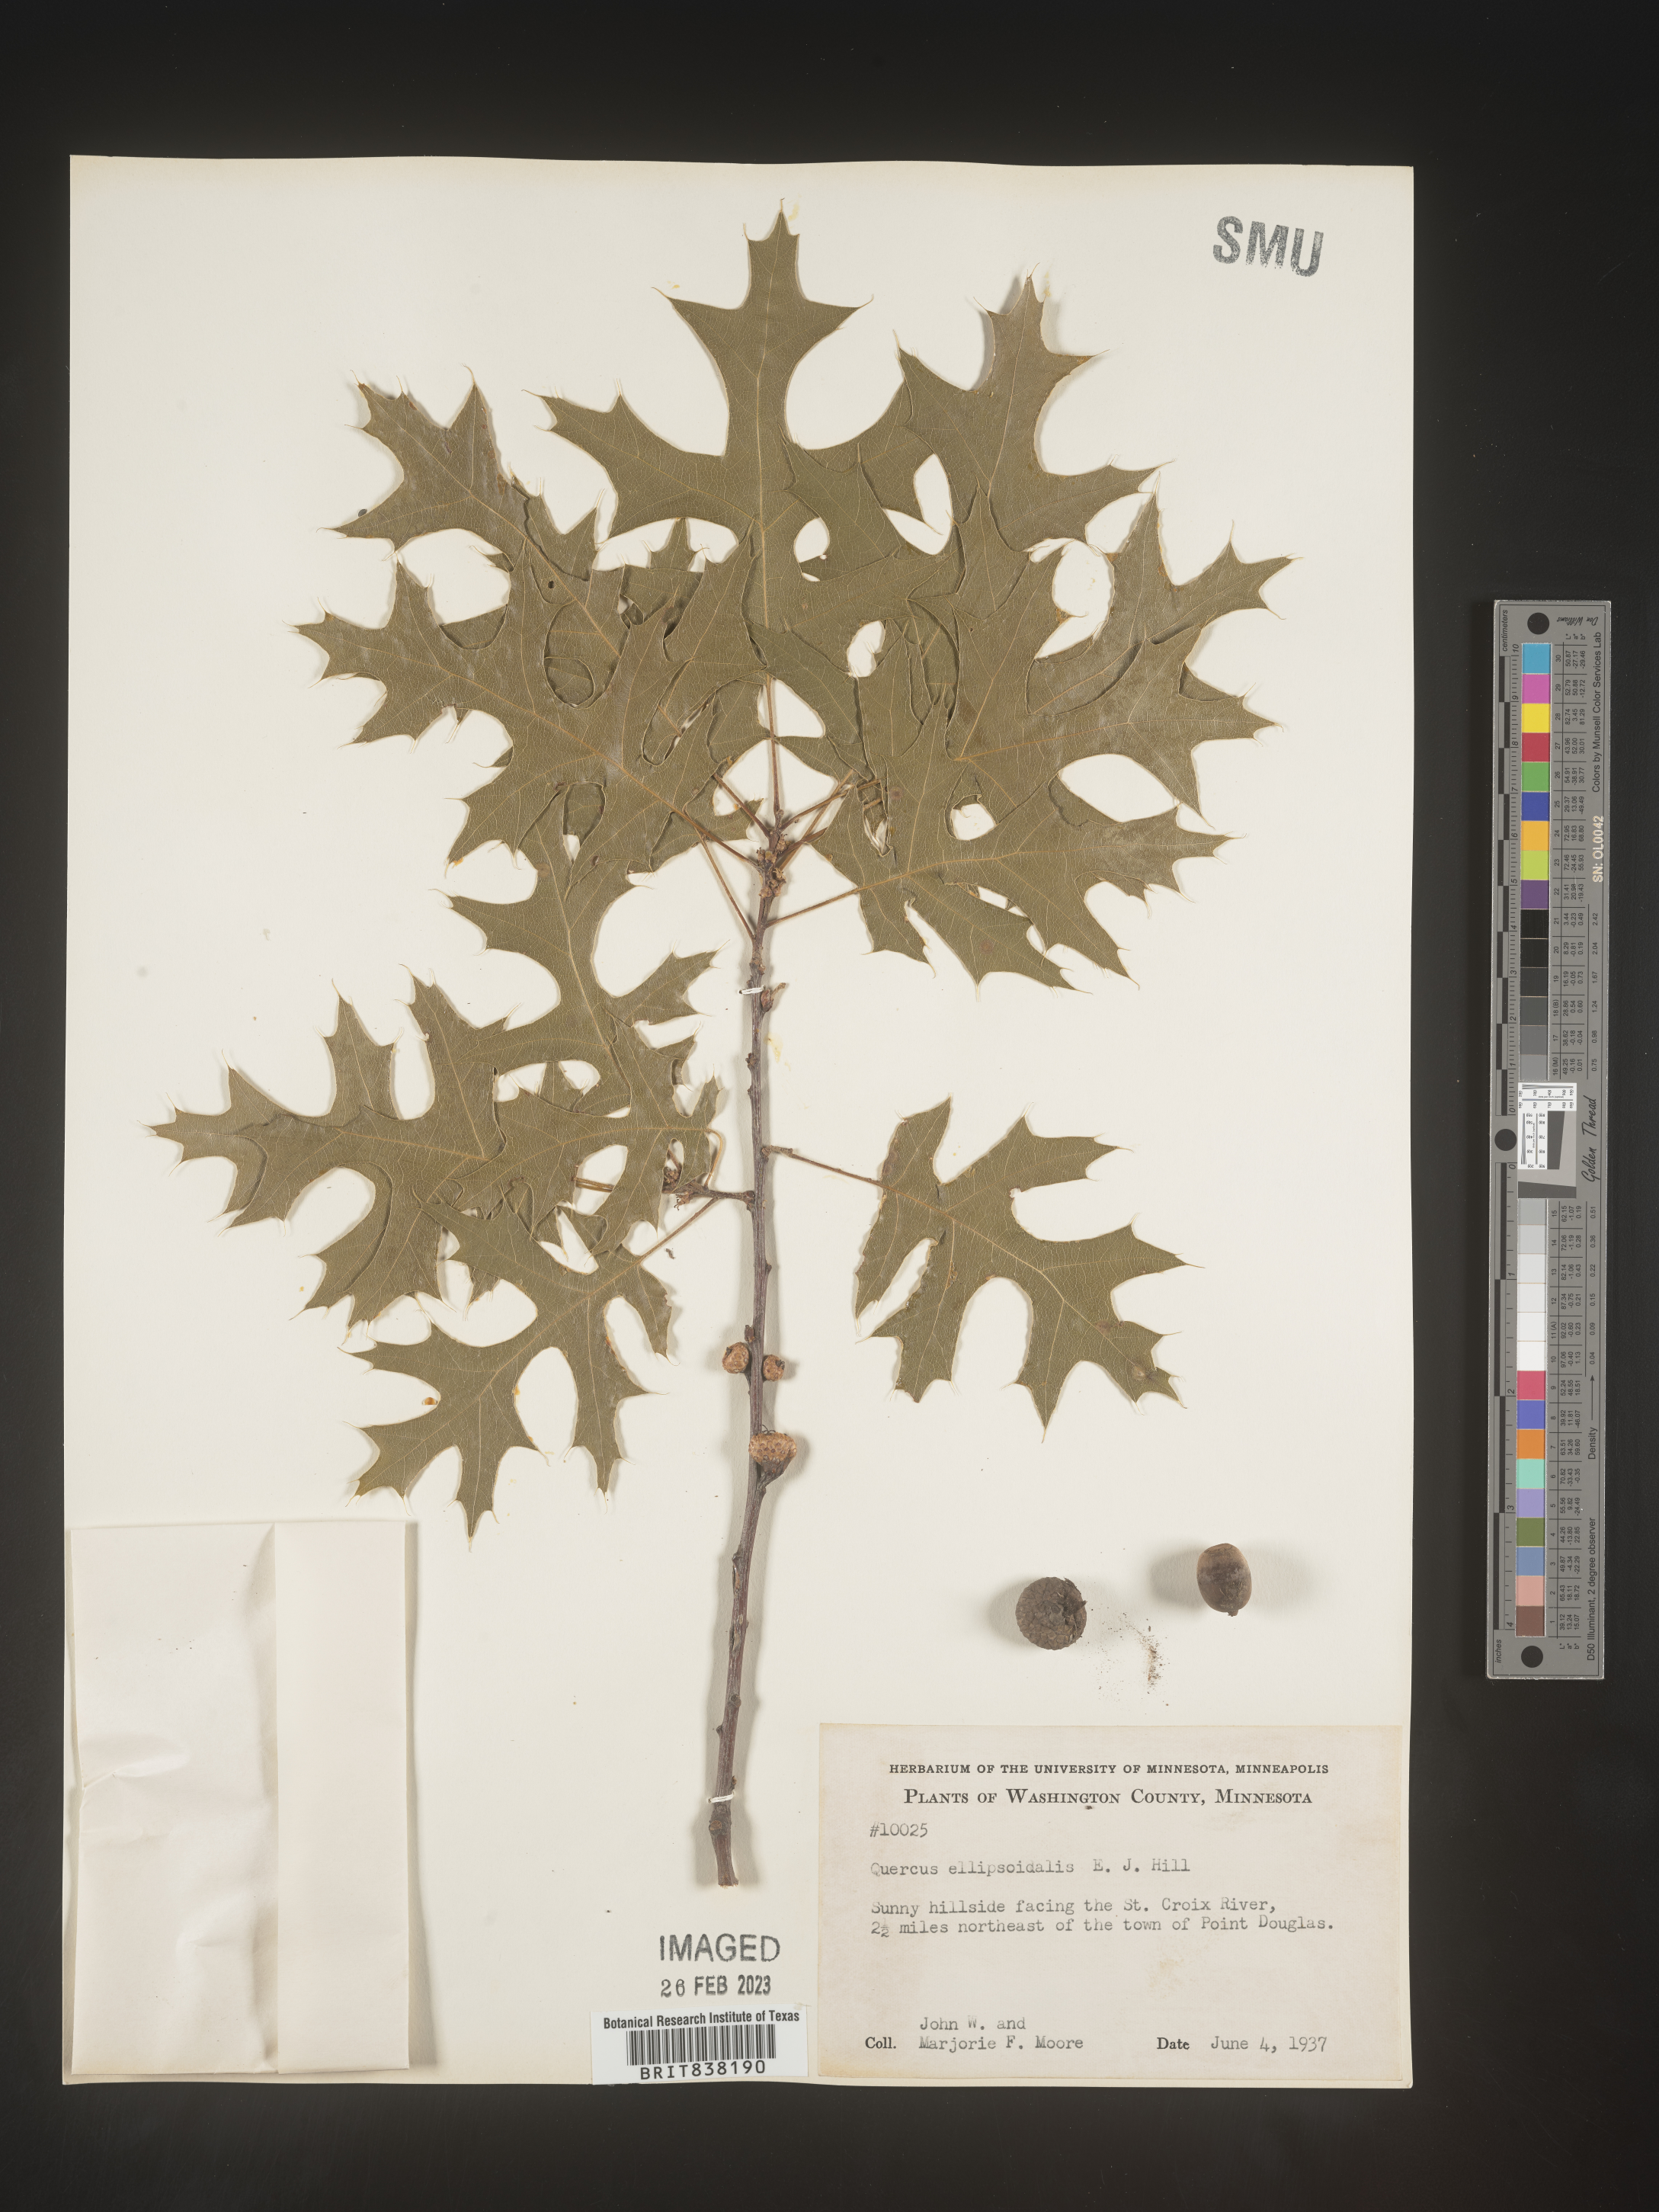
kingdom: Plantae
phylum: Tracheophyta
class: Magnoliopsida
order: Fagales
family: Fagaceae
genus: Quercus
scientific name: Quercus ellipsoidalis
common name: Hill's oak
